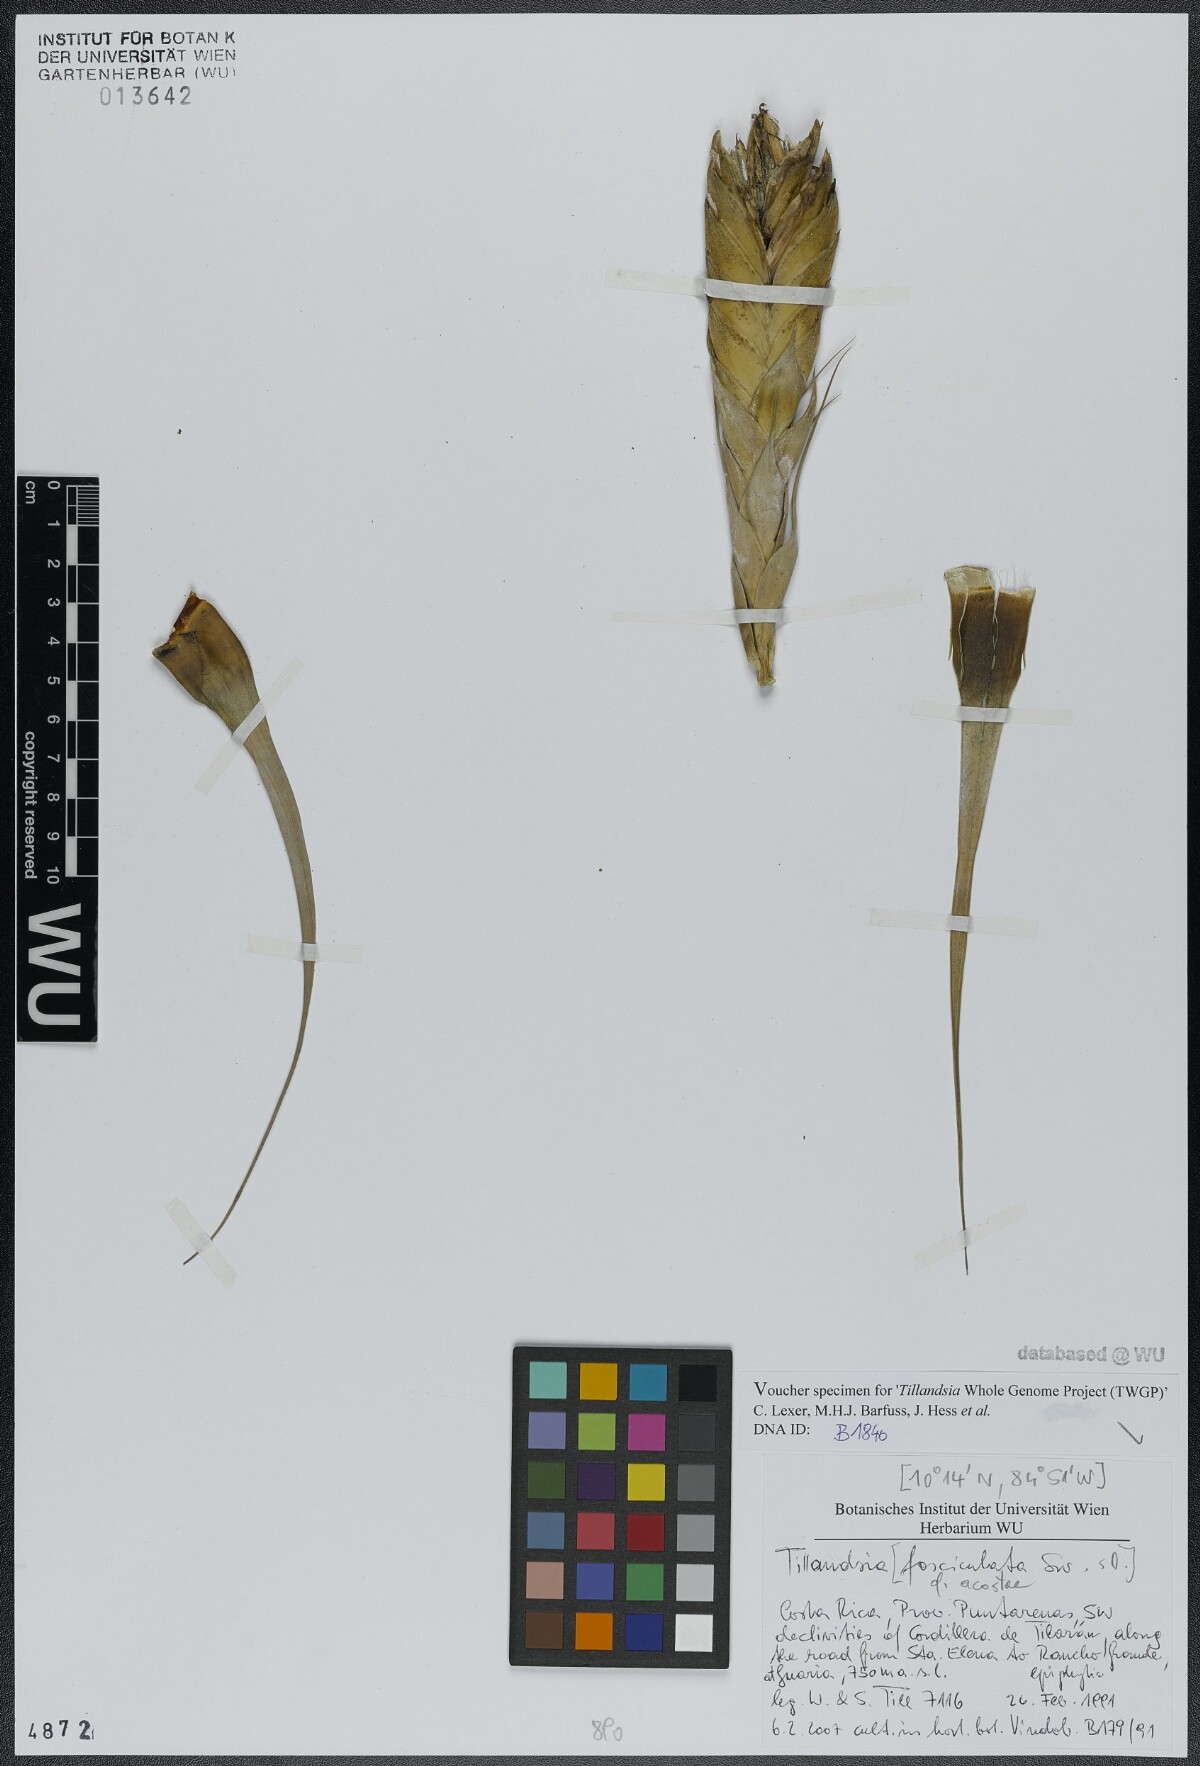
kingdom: Plantae
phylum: Tracheophyta
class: Liliopsida
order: Poales
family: Bromeliaceae
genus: Tillandsia
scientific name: Tillandsia fasciculata
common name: Giant airplant
